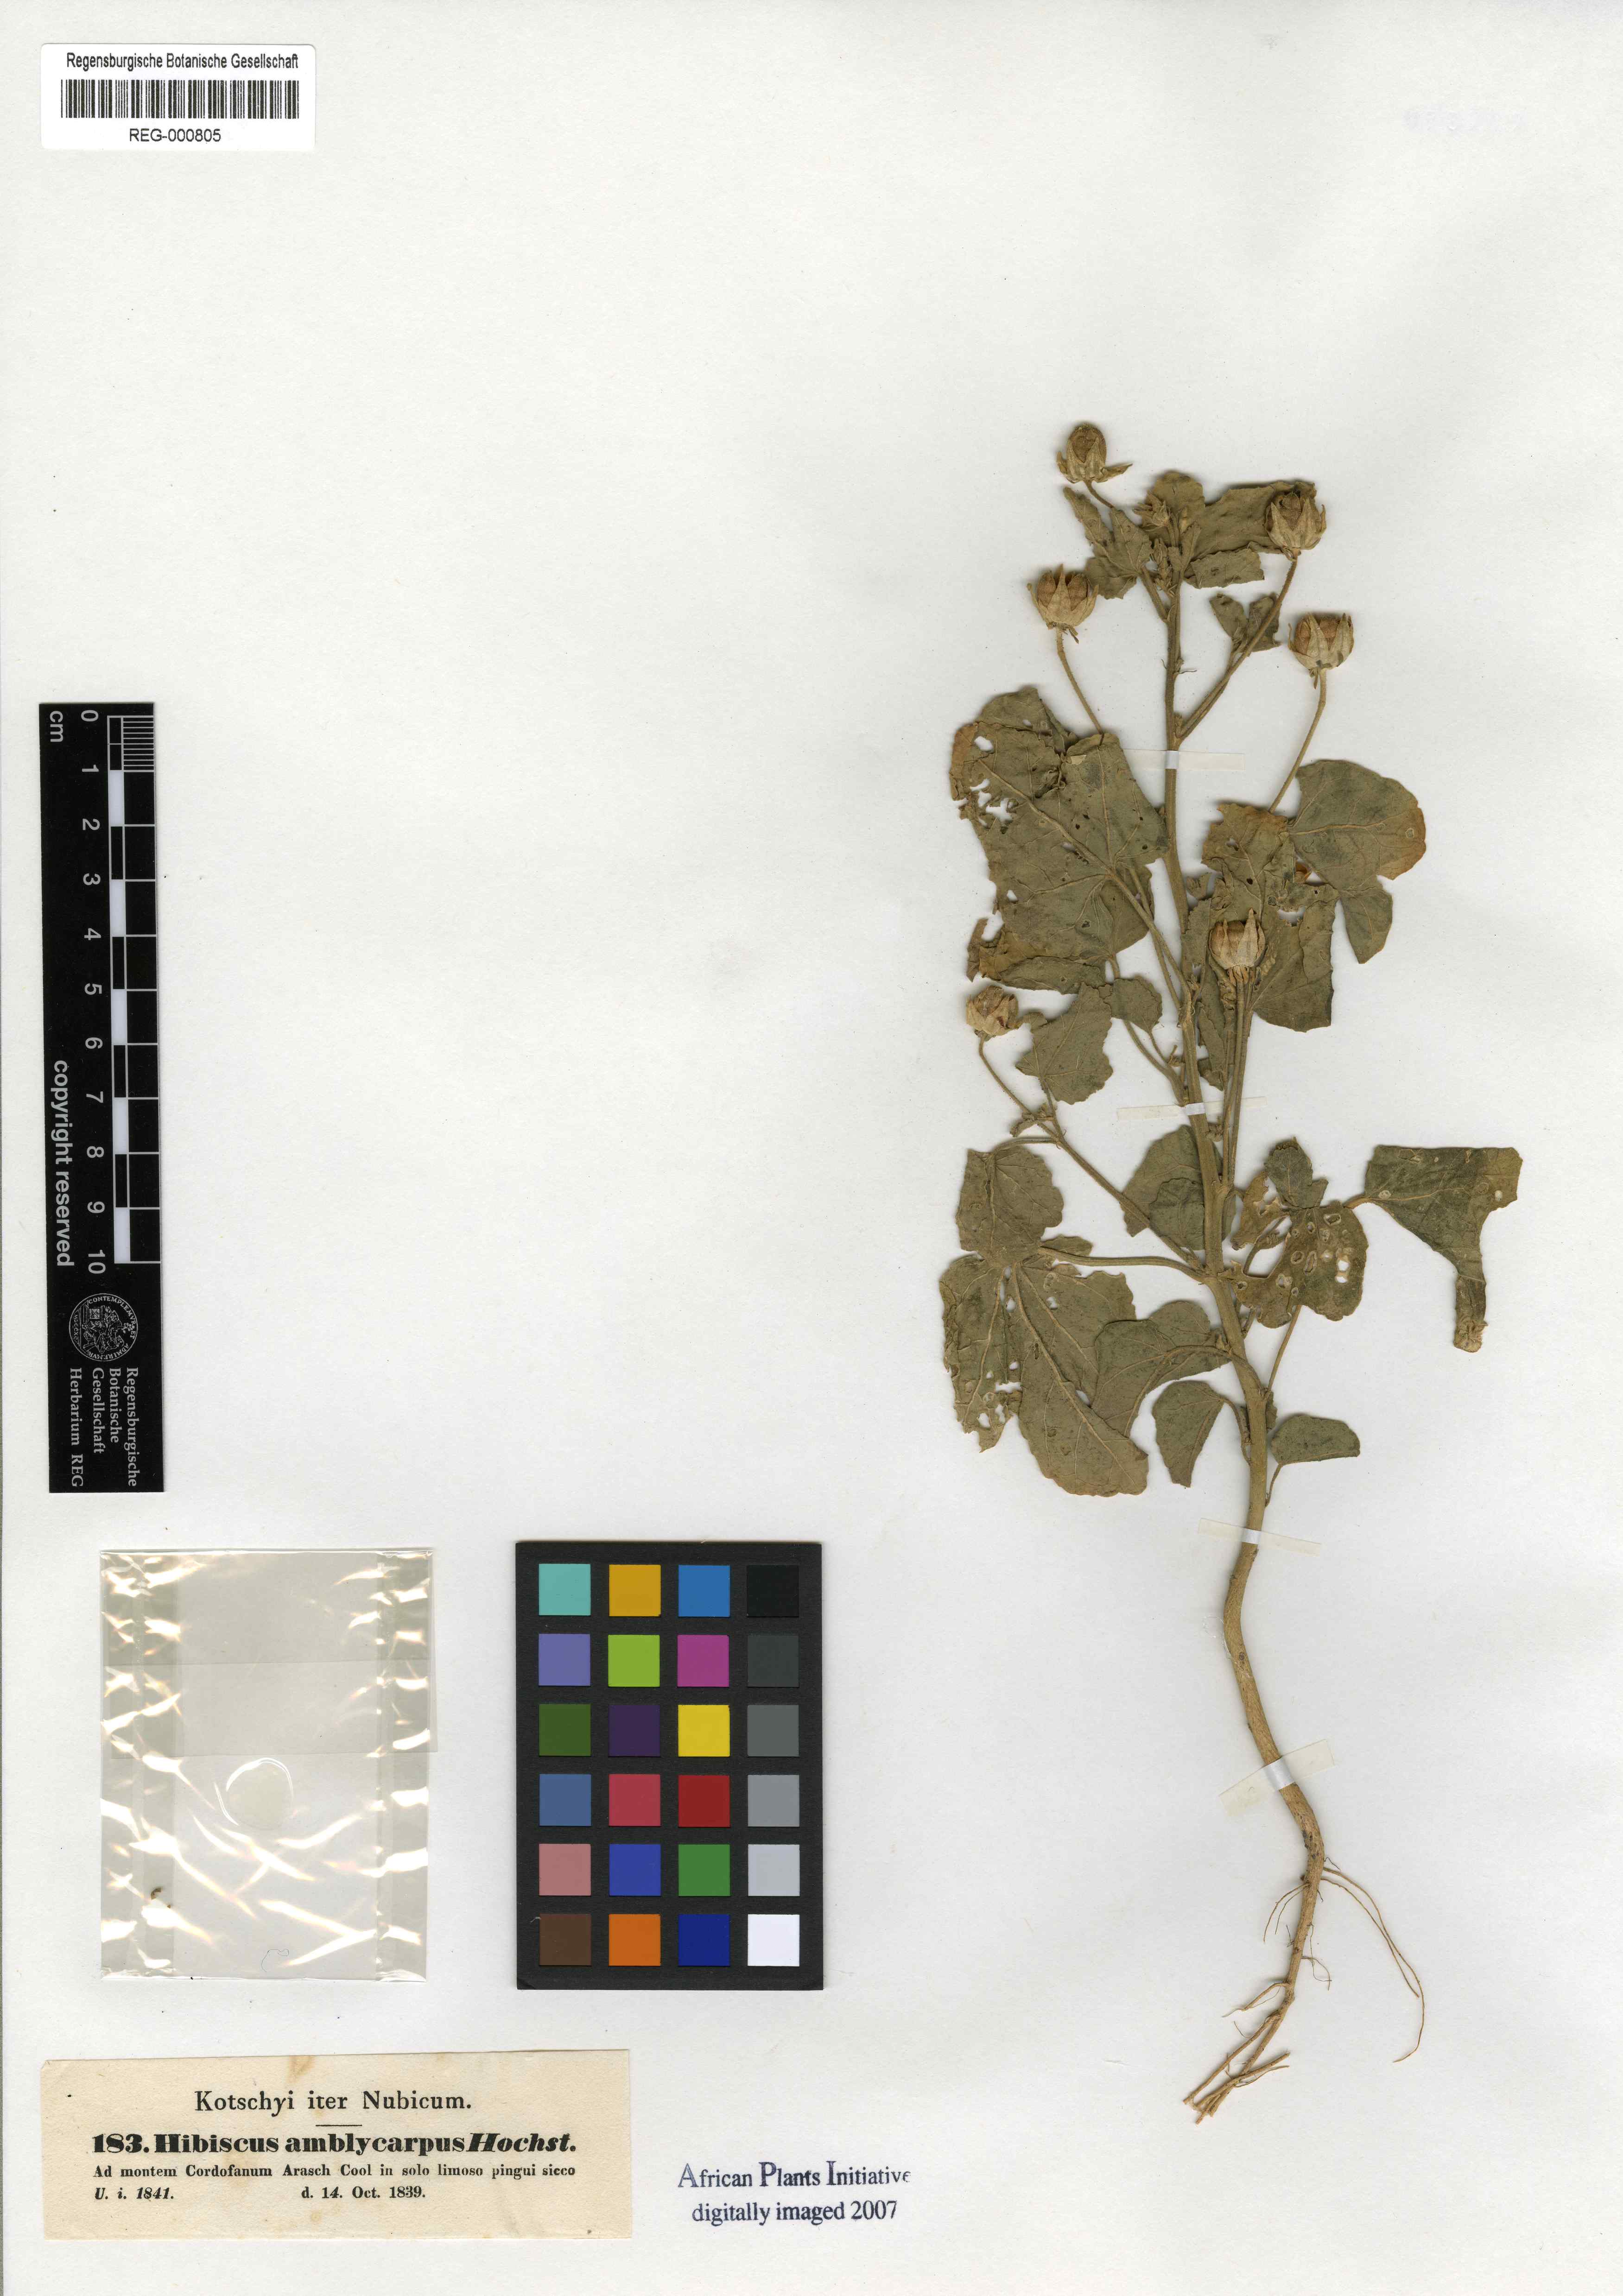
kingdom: Plantae
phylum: Tracheophyta
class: Magnoliopsida
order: Malvales
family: Malvaceae
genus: Hibiscus
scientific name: Hibiscus obtusilobus
